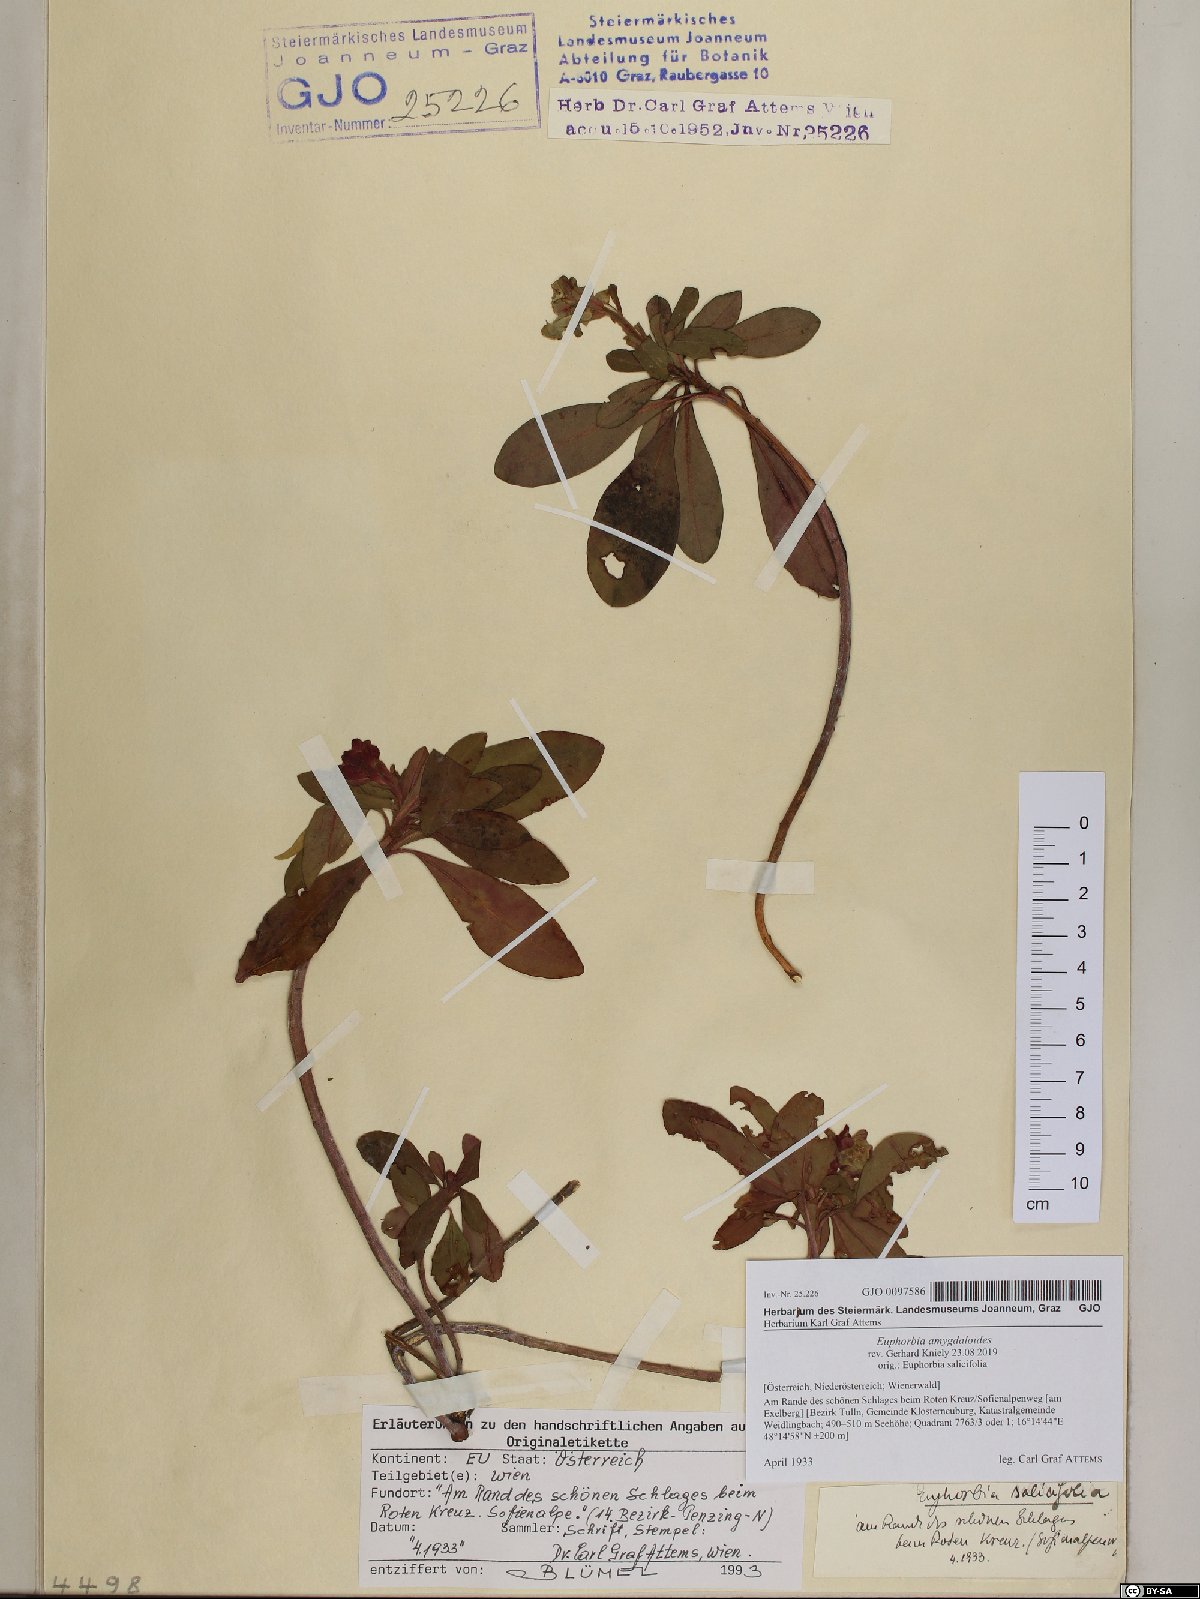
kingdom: Plantae
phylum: Tracheophyta
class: Magnoliopsida
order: Malpighiales
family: Euphorbiaceae
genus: Euphorbia
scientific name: Euphorbia amygdaloides
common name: Wood spurge
